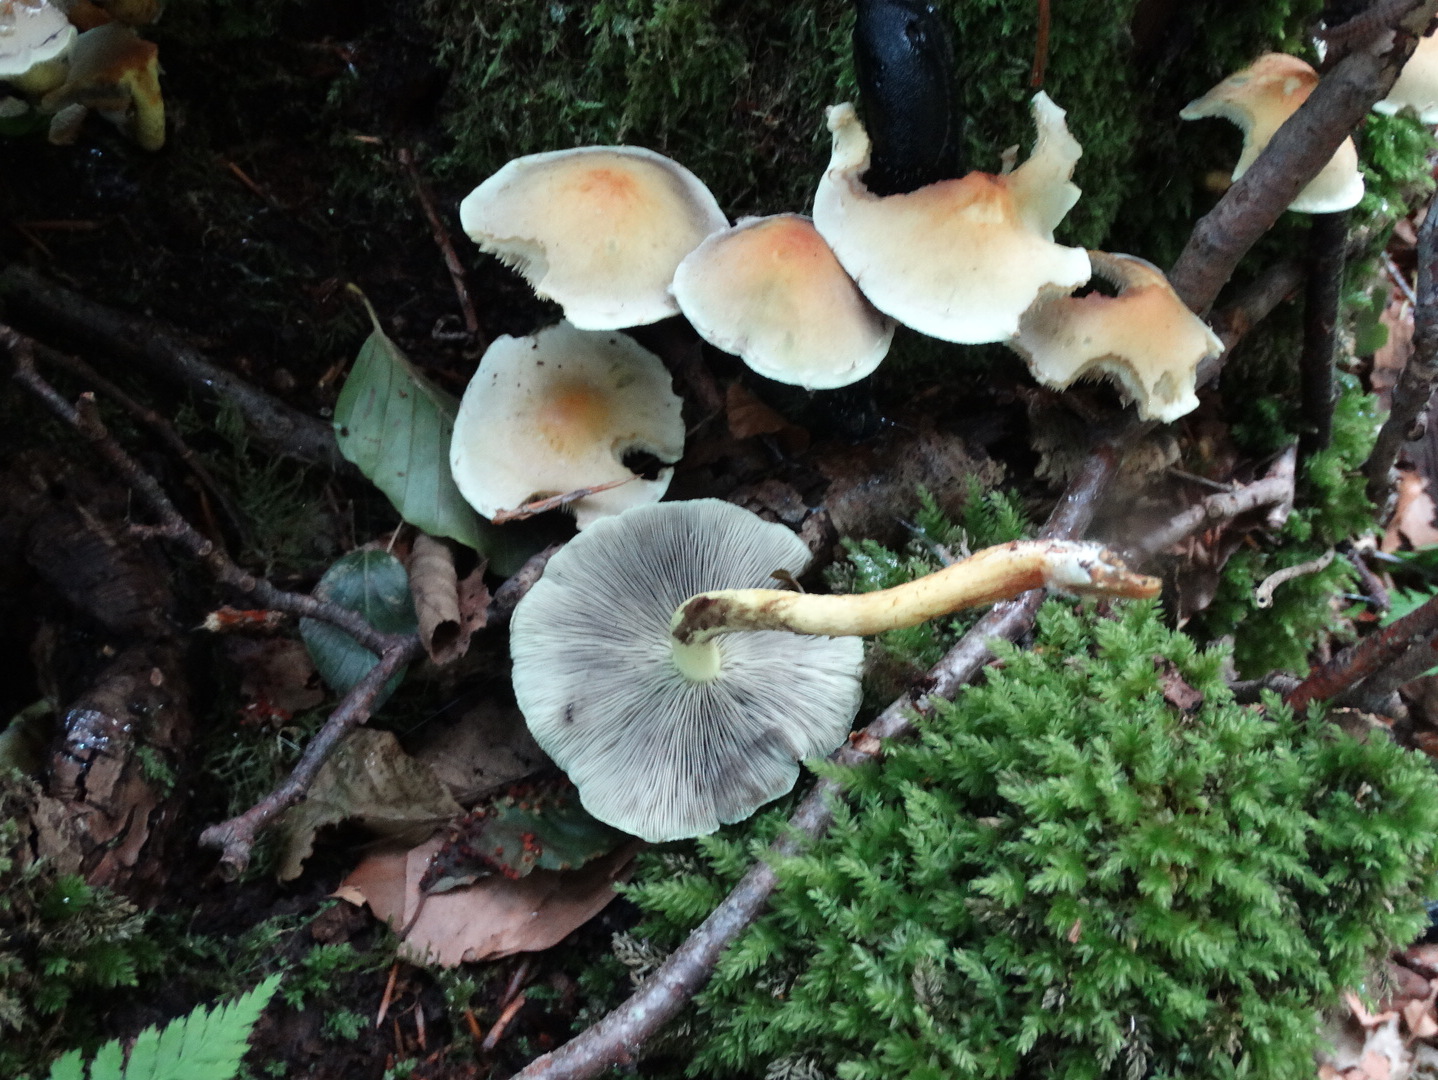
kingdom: Fungi
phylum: Basidiomycota
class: Agaricomycetes
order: Agaricales
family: Strophariaceae
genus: Hypholoma
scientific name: Hypholoma fasciculare
